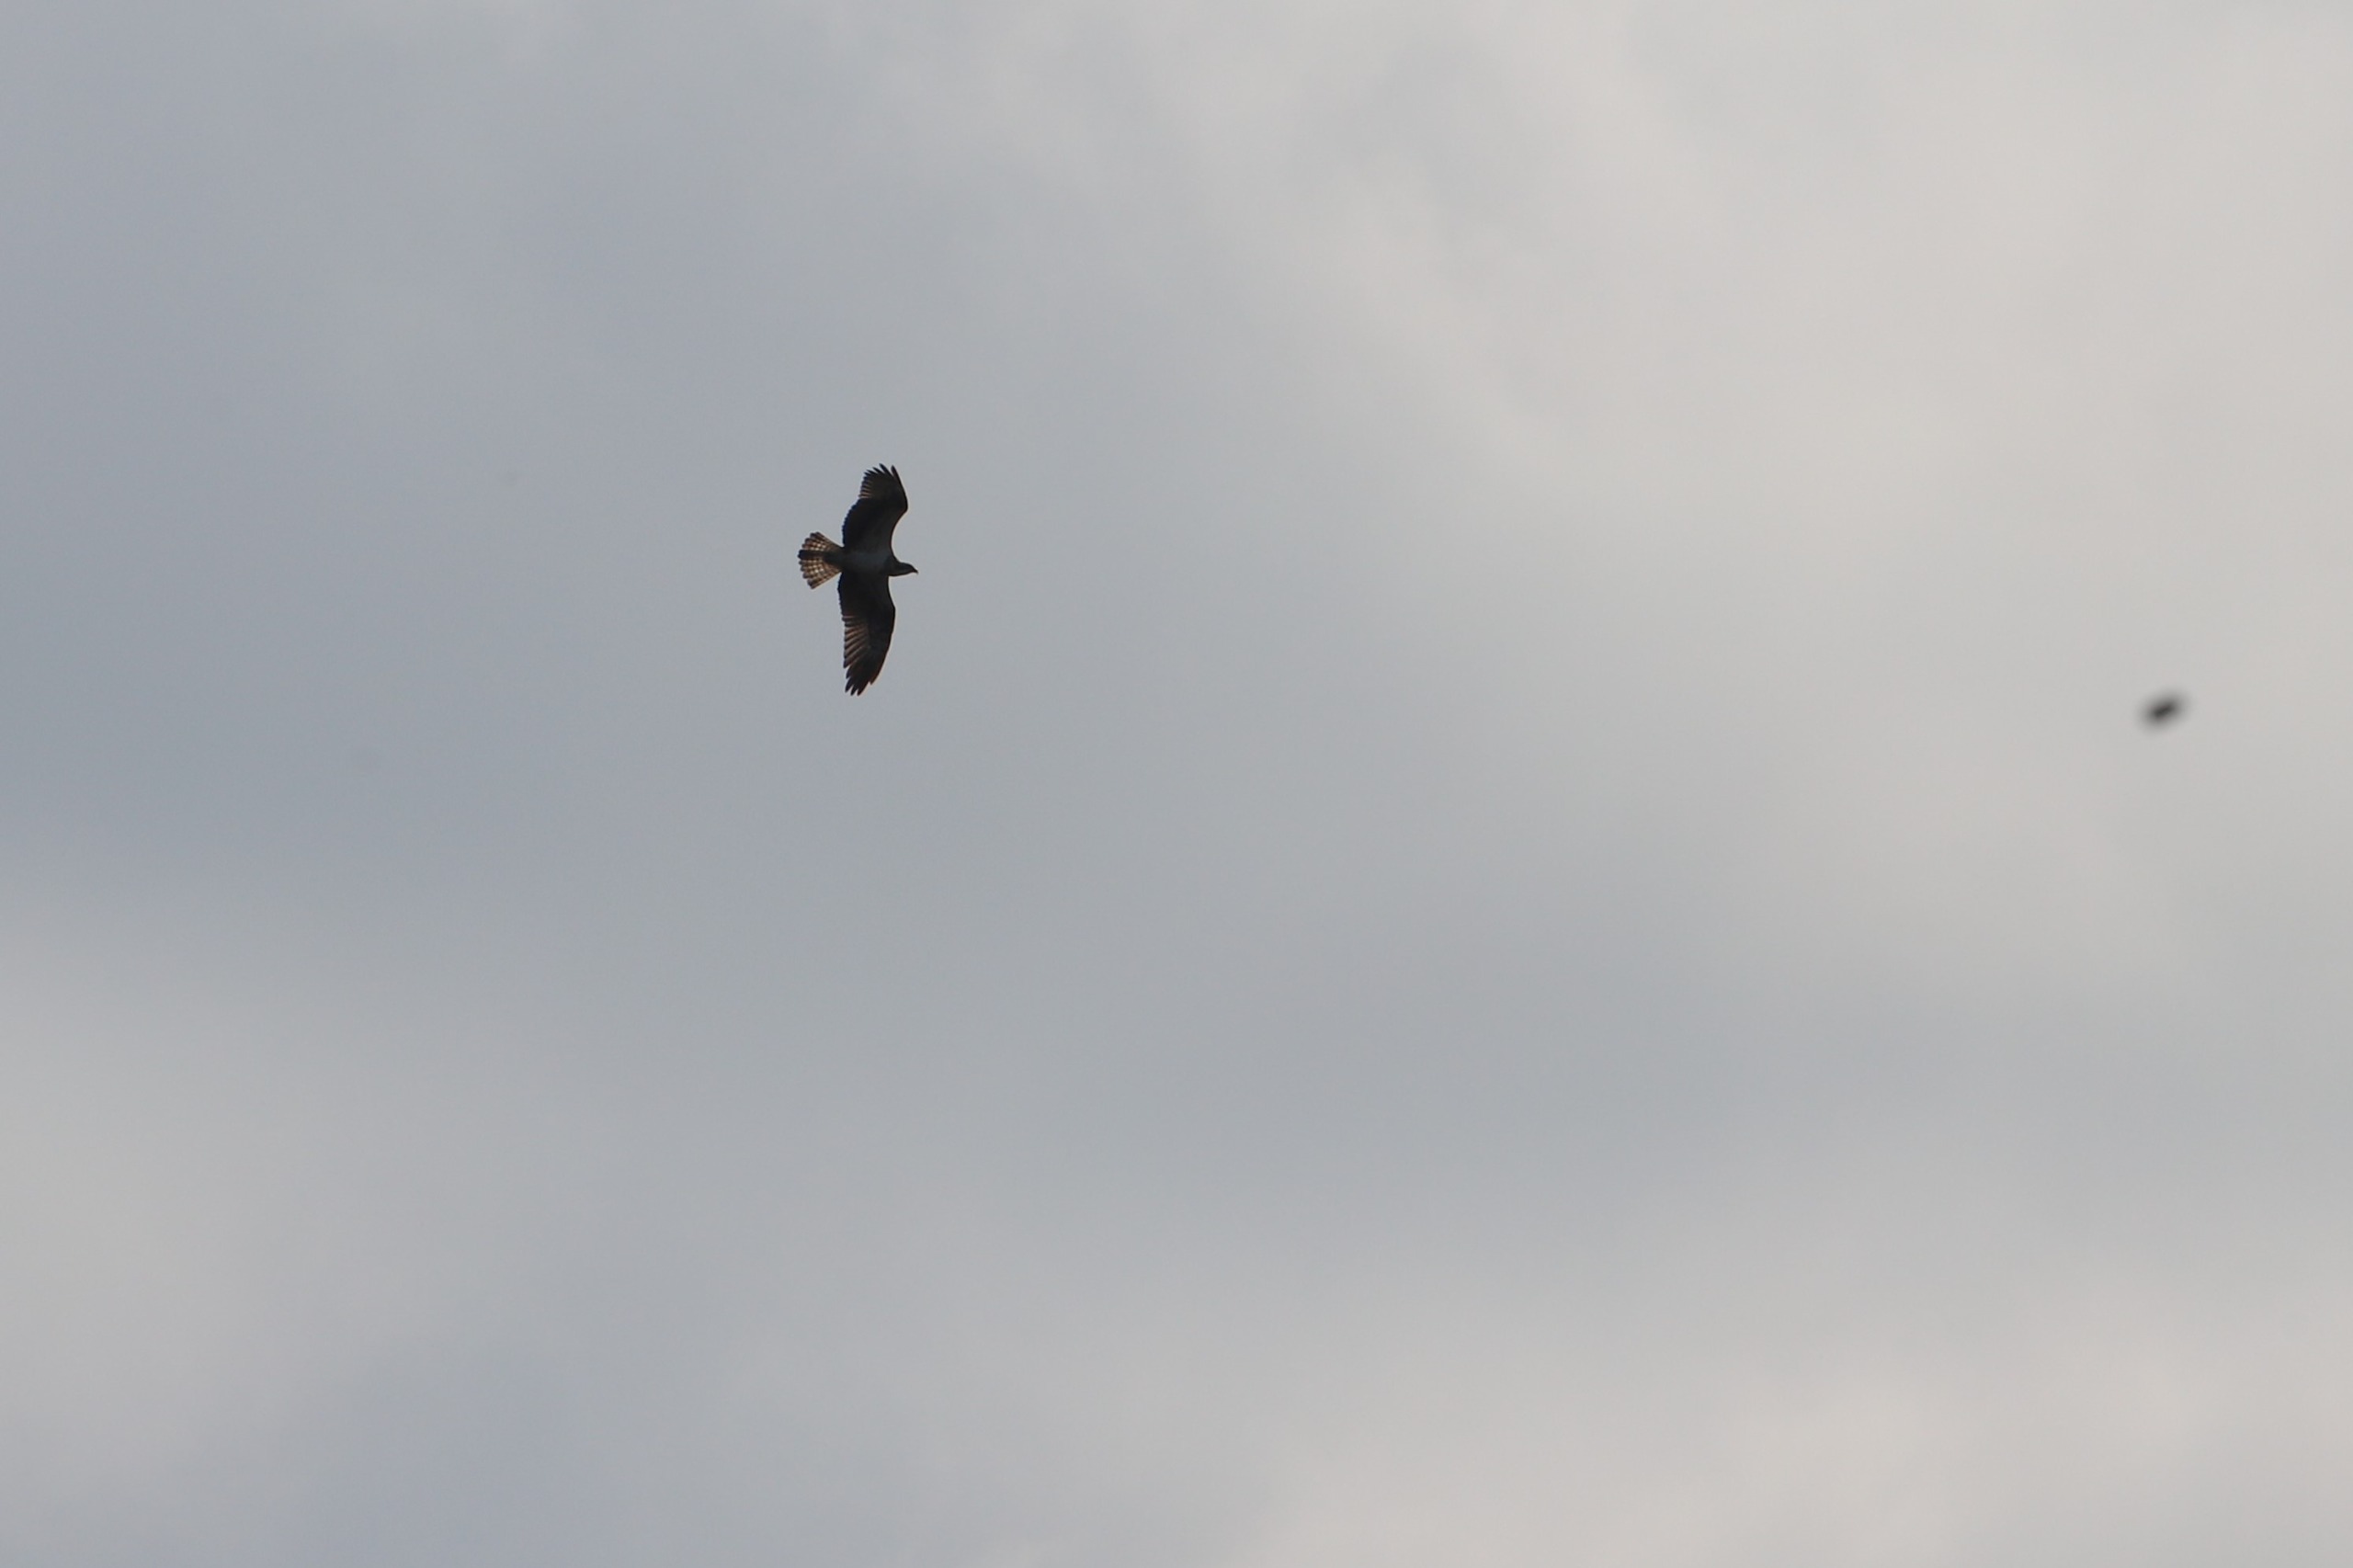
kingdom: Animalia
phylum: Chordata
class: Aves
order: Accipitriformes
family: Pandionidae
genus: Pandion
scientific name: Pandion haliaetus
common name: Fiskeørn
